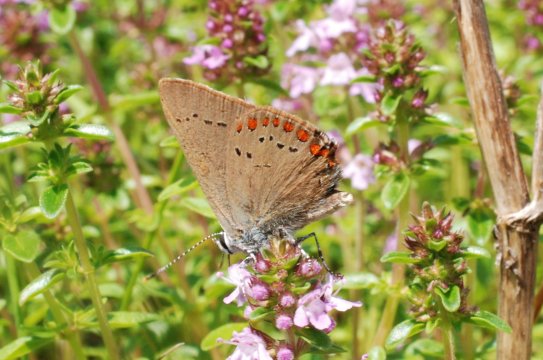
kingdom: Animalia
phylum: Arthropoda
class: Insecta
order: Lepidoptera
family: Lycaenidae
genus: Harkenclenus
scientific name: Harkenclenus titus
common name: Coral Hairstreak
